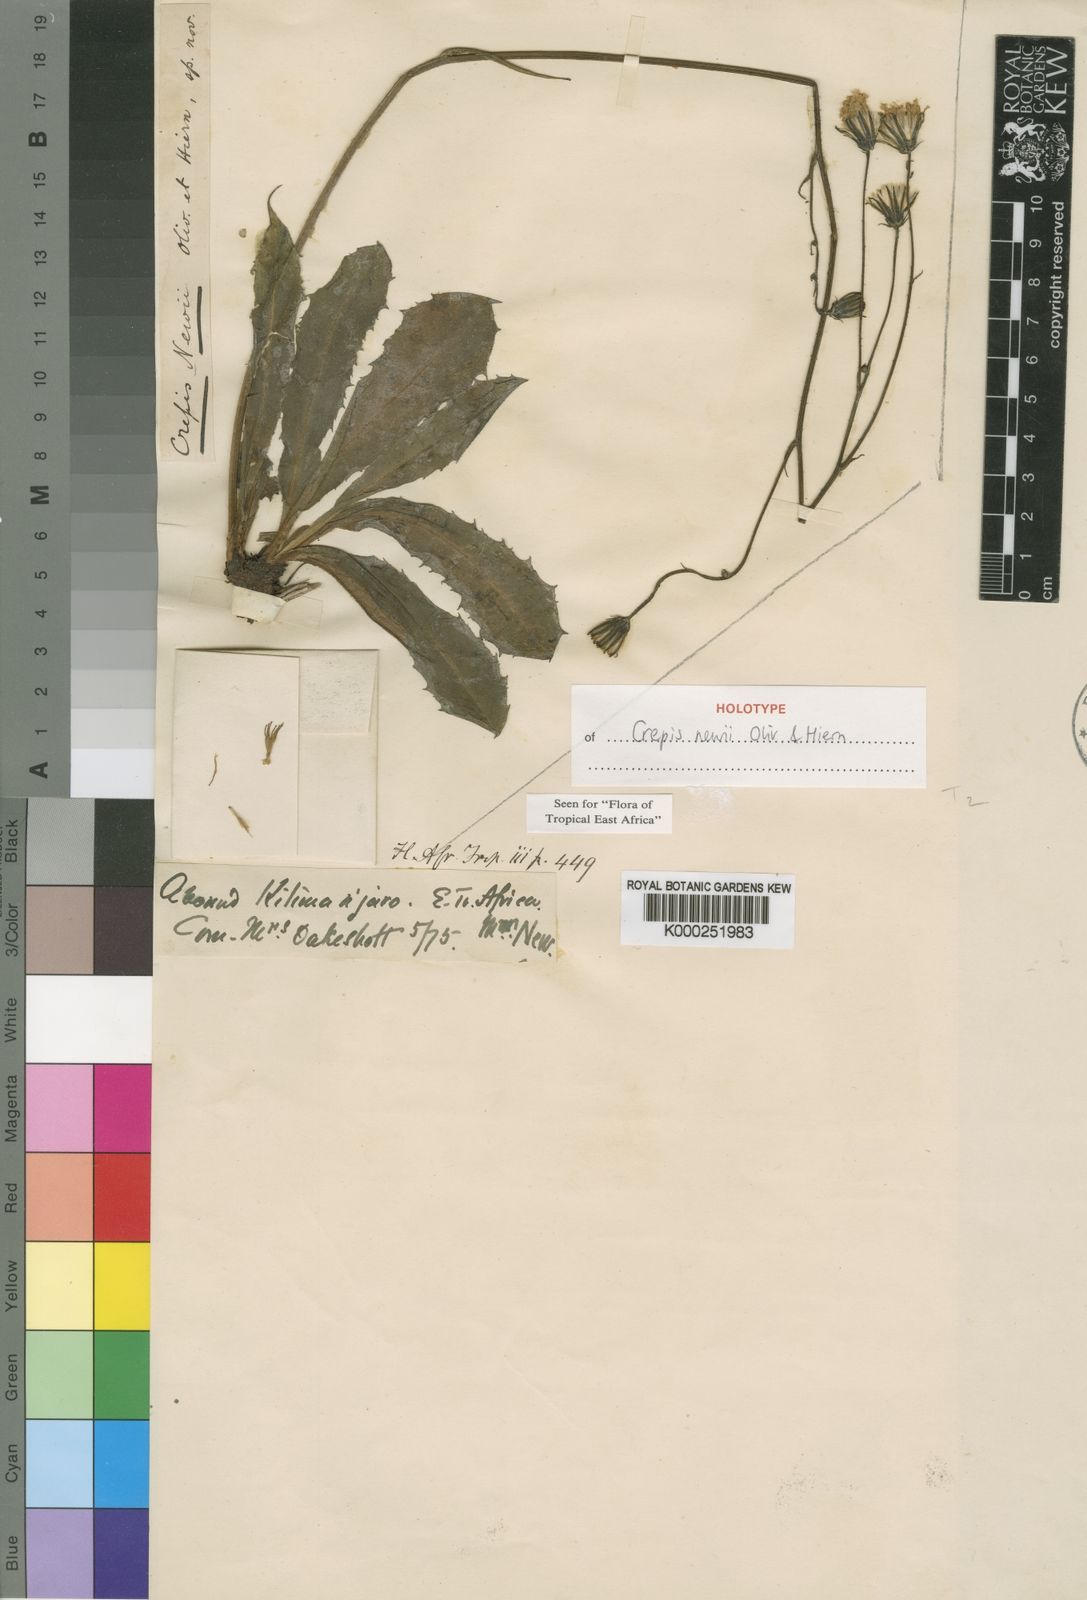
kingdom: Plantae
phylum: Tracheophyta
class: Magnoliopsida
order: Asterales
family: Asteraceae
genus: Crepis
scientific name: Crepis
